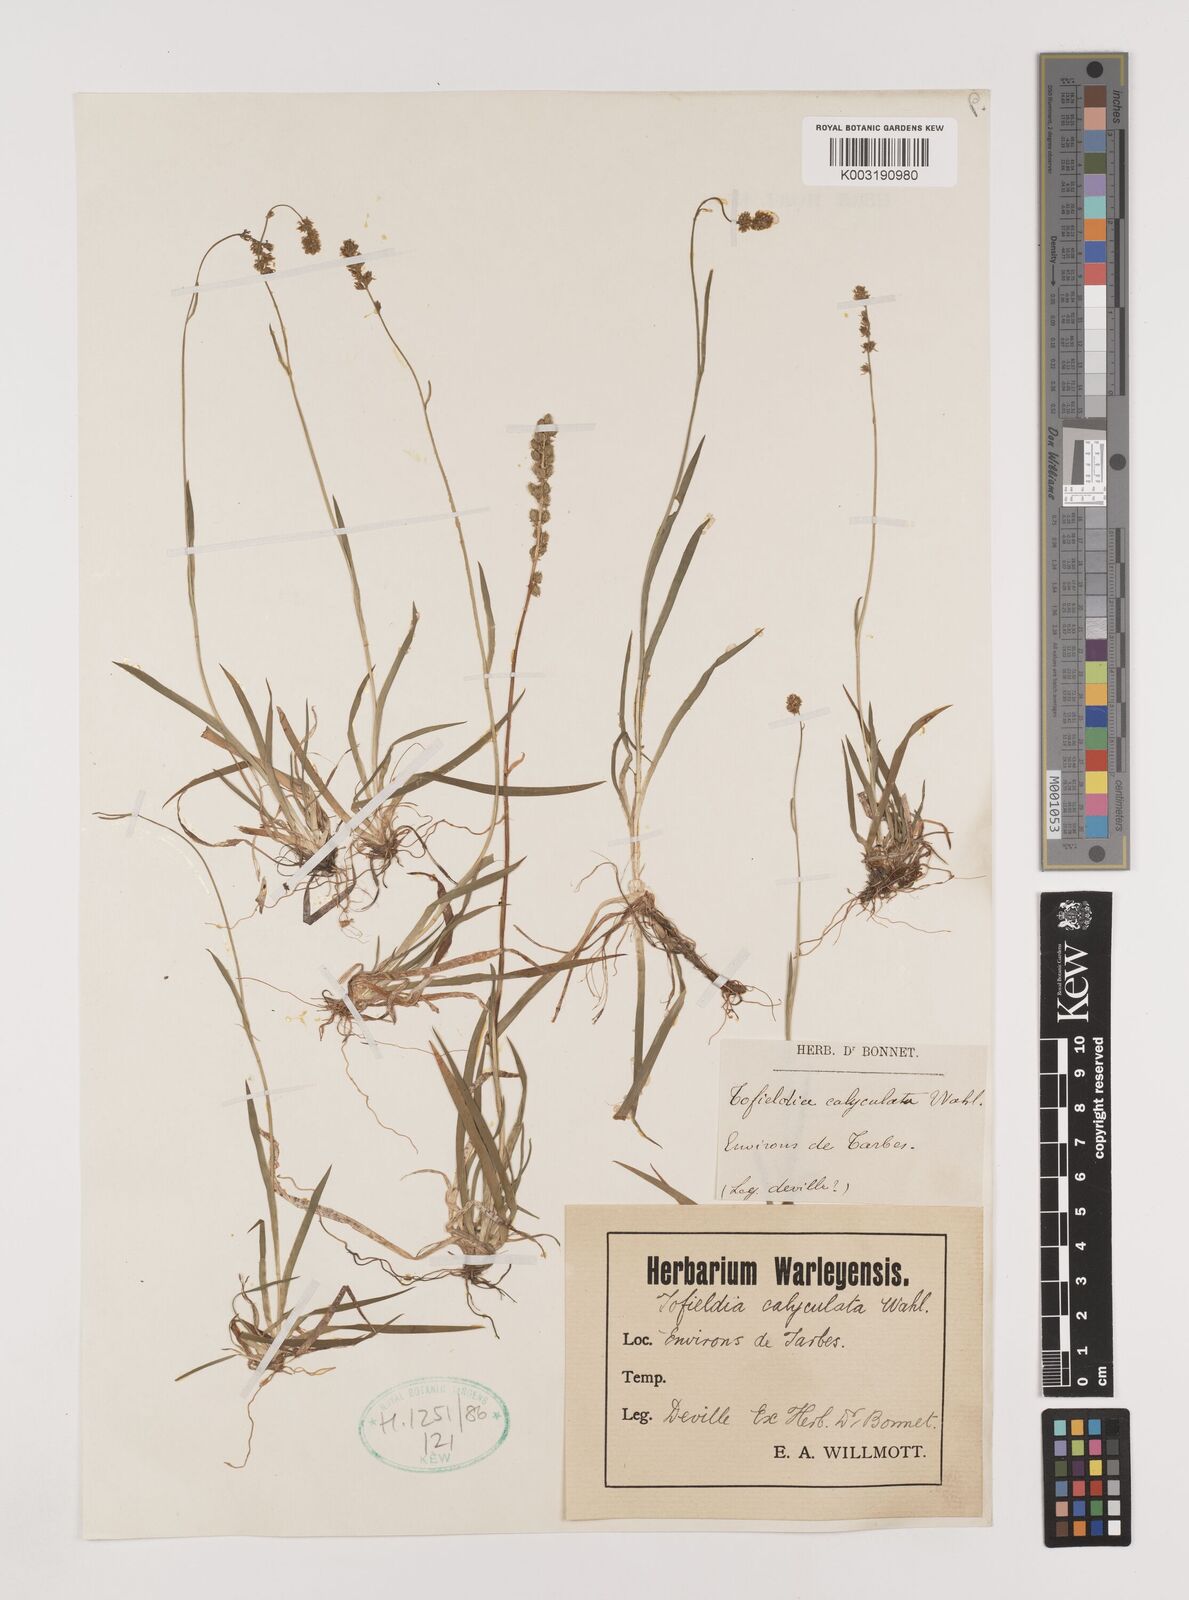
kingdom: Plantae
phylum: Tracheophyta
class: Liliopsida
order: Alismatales
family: Tofieldiaceae
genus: Tofieldia
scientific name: Tofieldia calyculata
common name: German-asphodel
